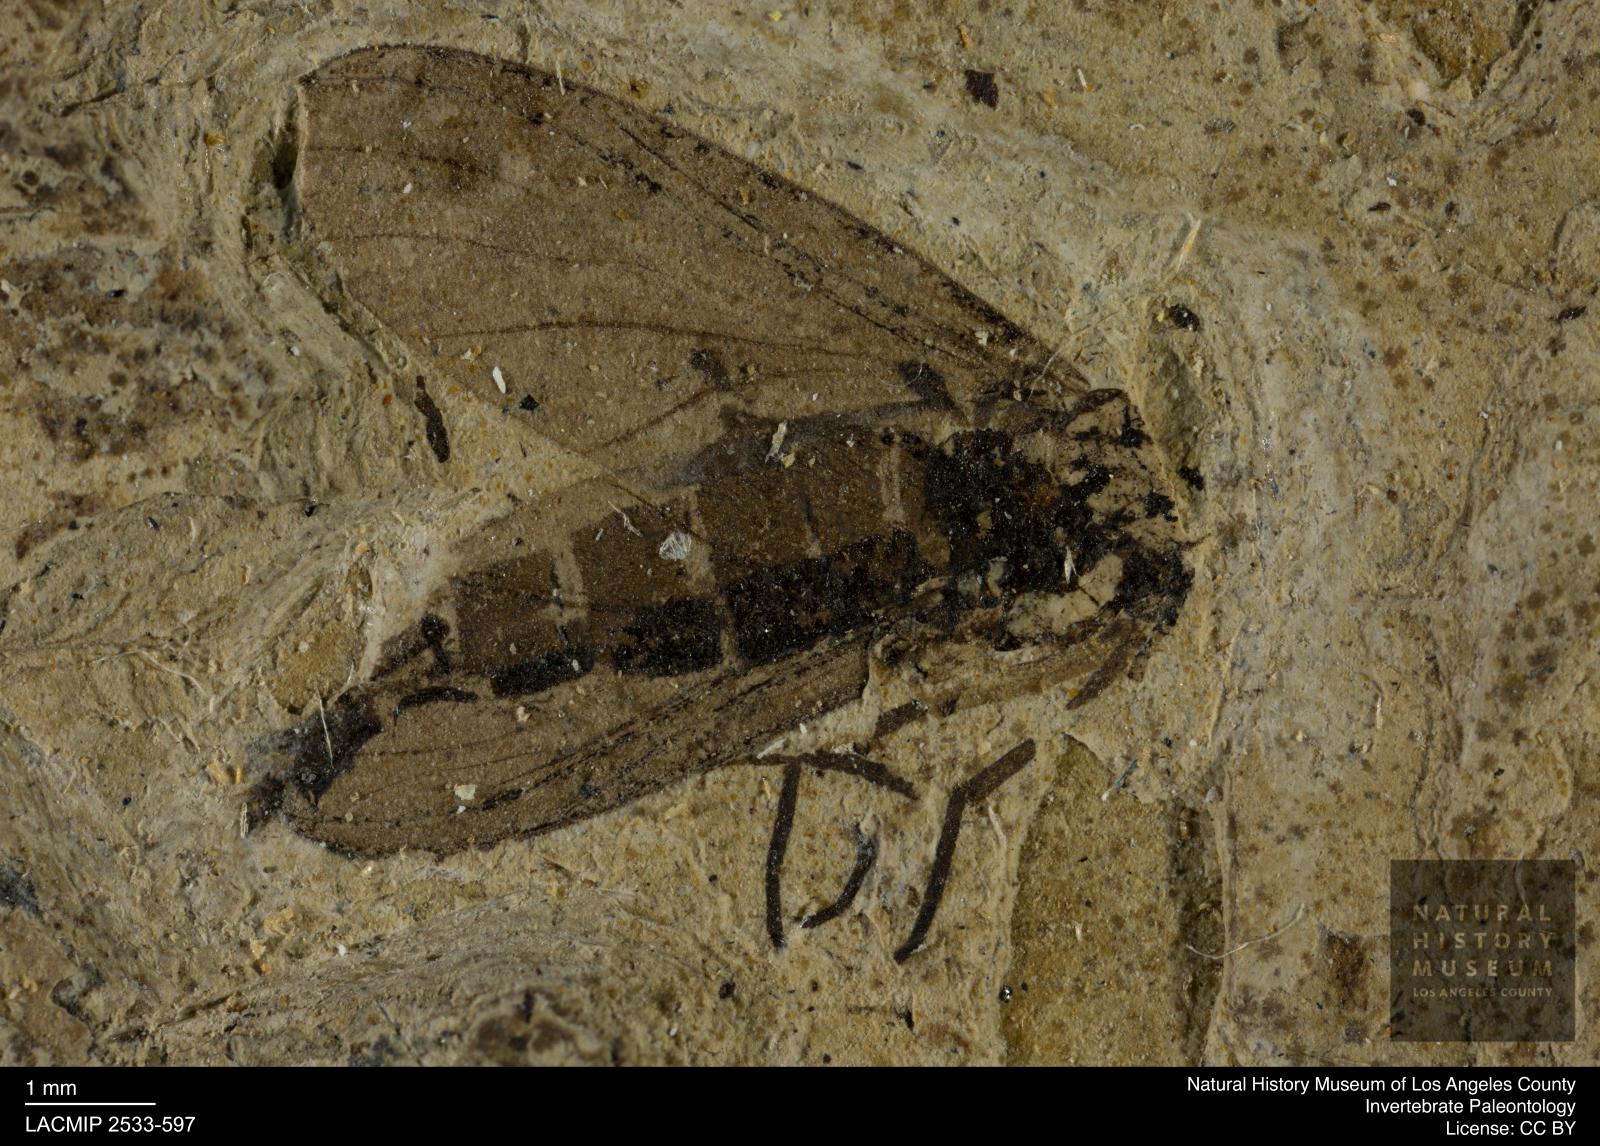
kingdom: Animalia
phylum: Arthropoda
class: Insecta
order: Diptera
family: Sciaridae
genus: Sciara
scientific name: Sciara pelidua
